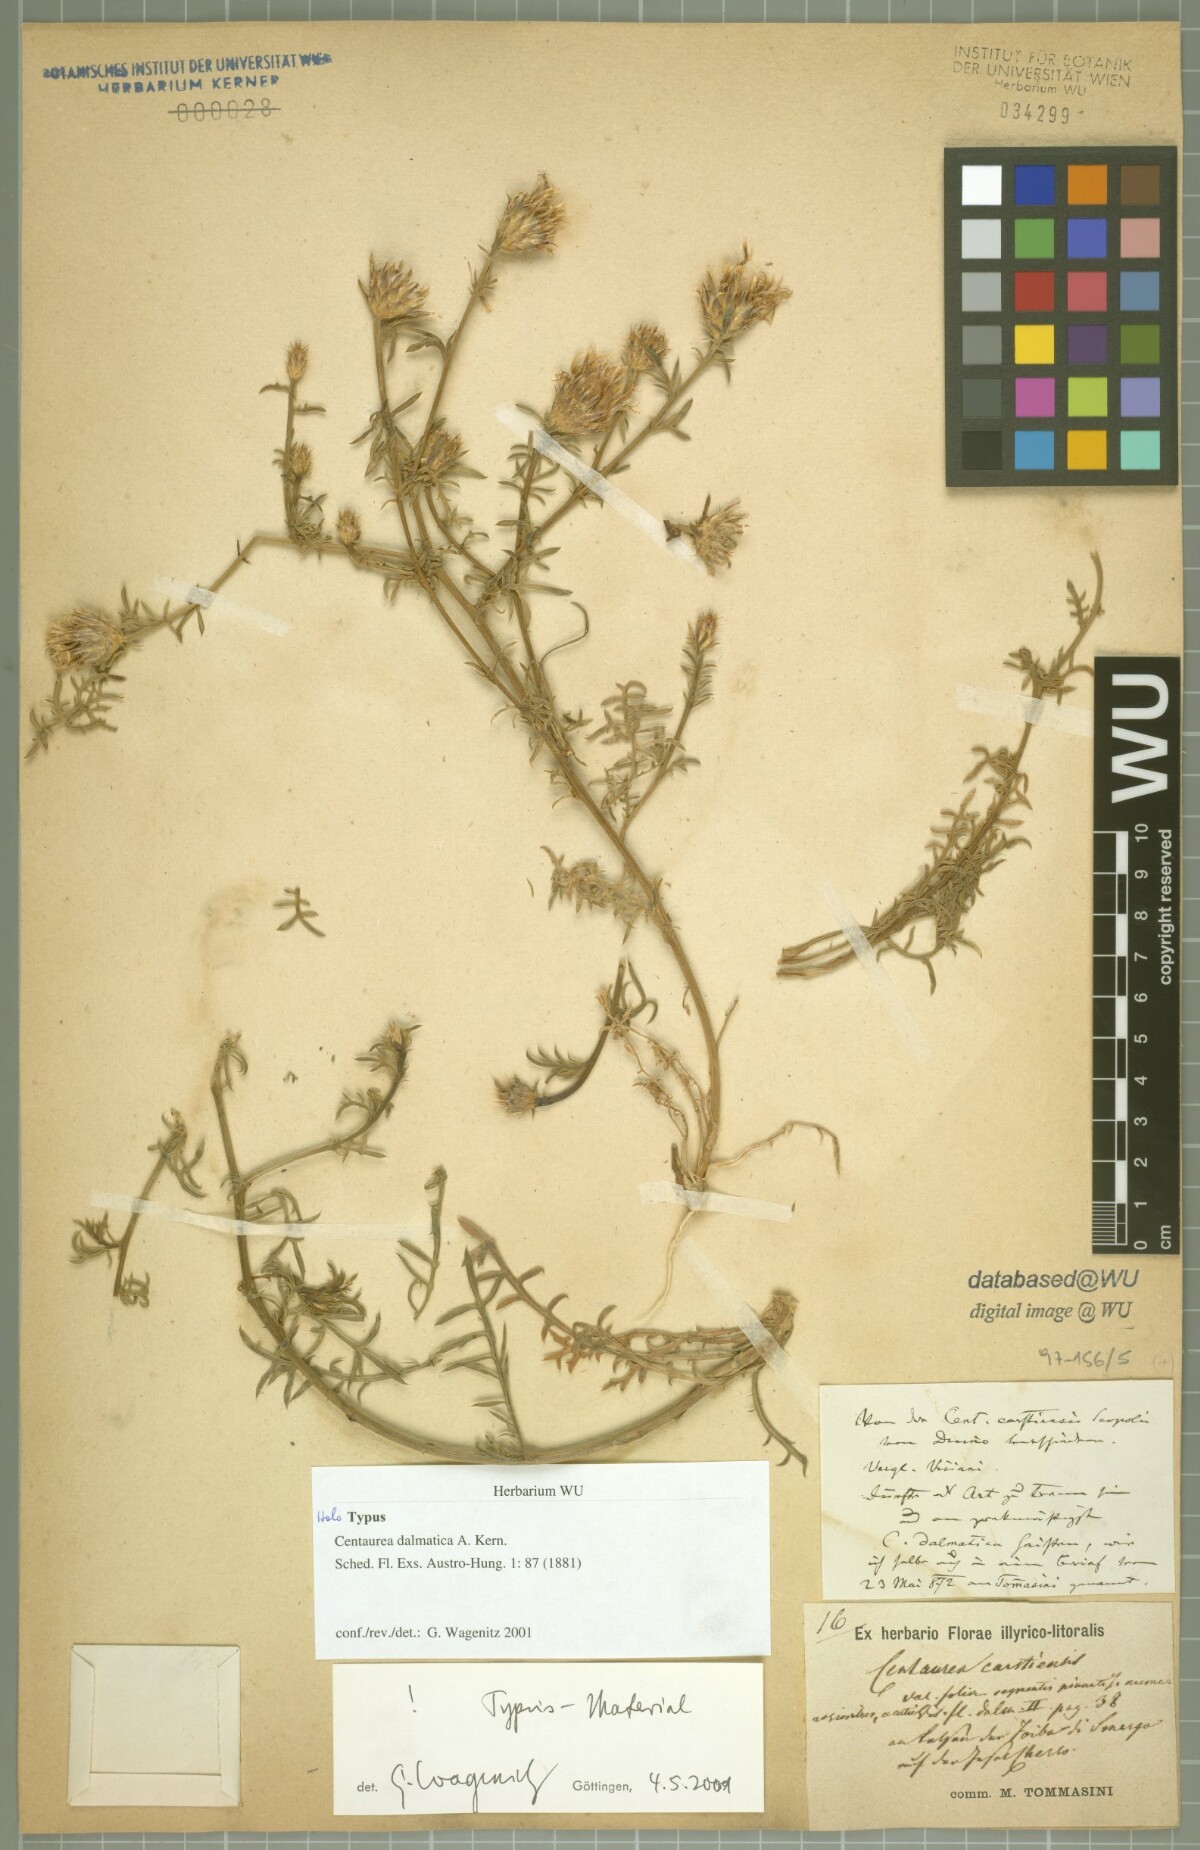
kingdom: Plantae
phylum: Tracheophyta
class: Magnoliopsida
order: Asterales
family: Asteraceae
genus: Centaurea
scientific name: Centaurea dalmatica
